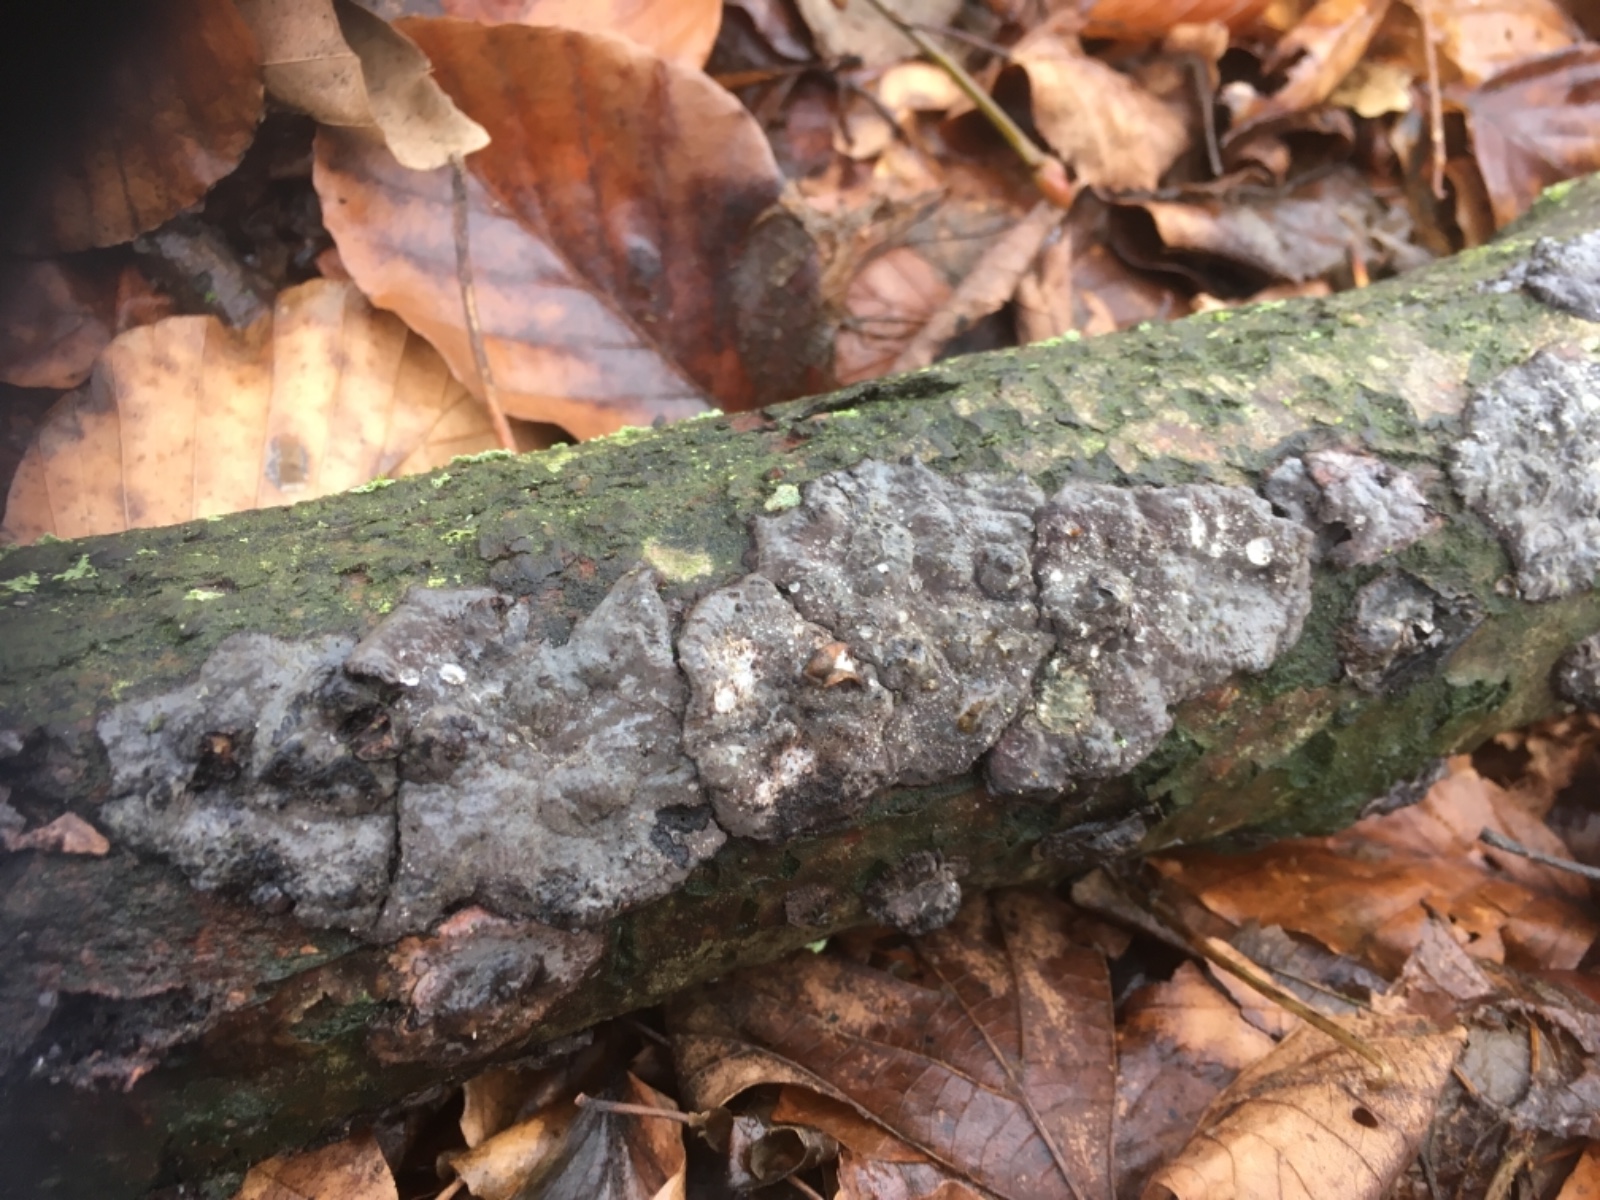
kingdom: Fungi
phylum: Basidiomycota
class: Agaricomycetes
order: Russulales
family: Peniophoraceae
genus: Peniophora
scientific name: Peniophora rufomarginata
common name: linde-voksskind
